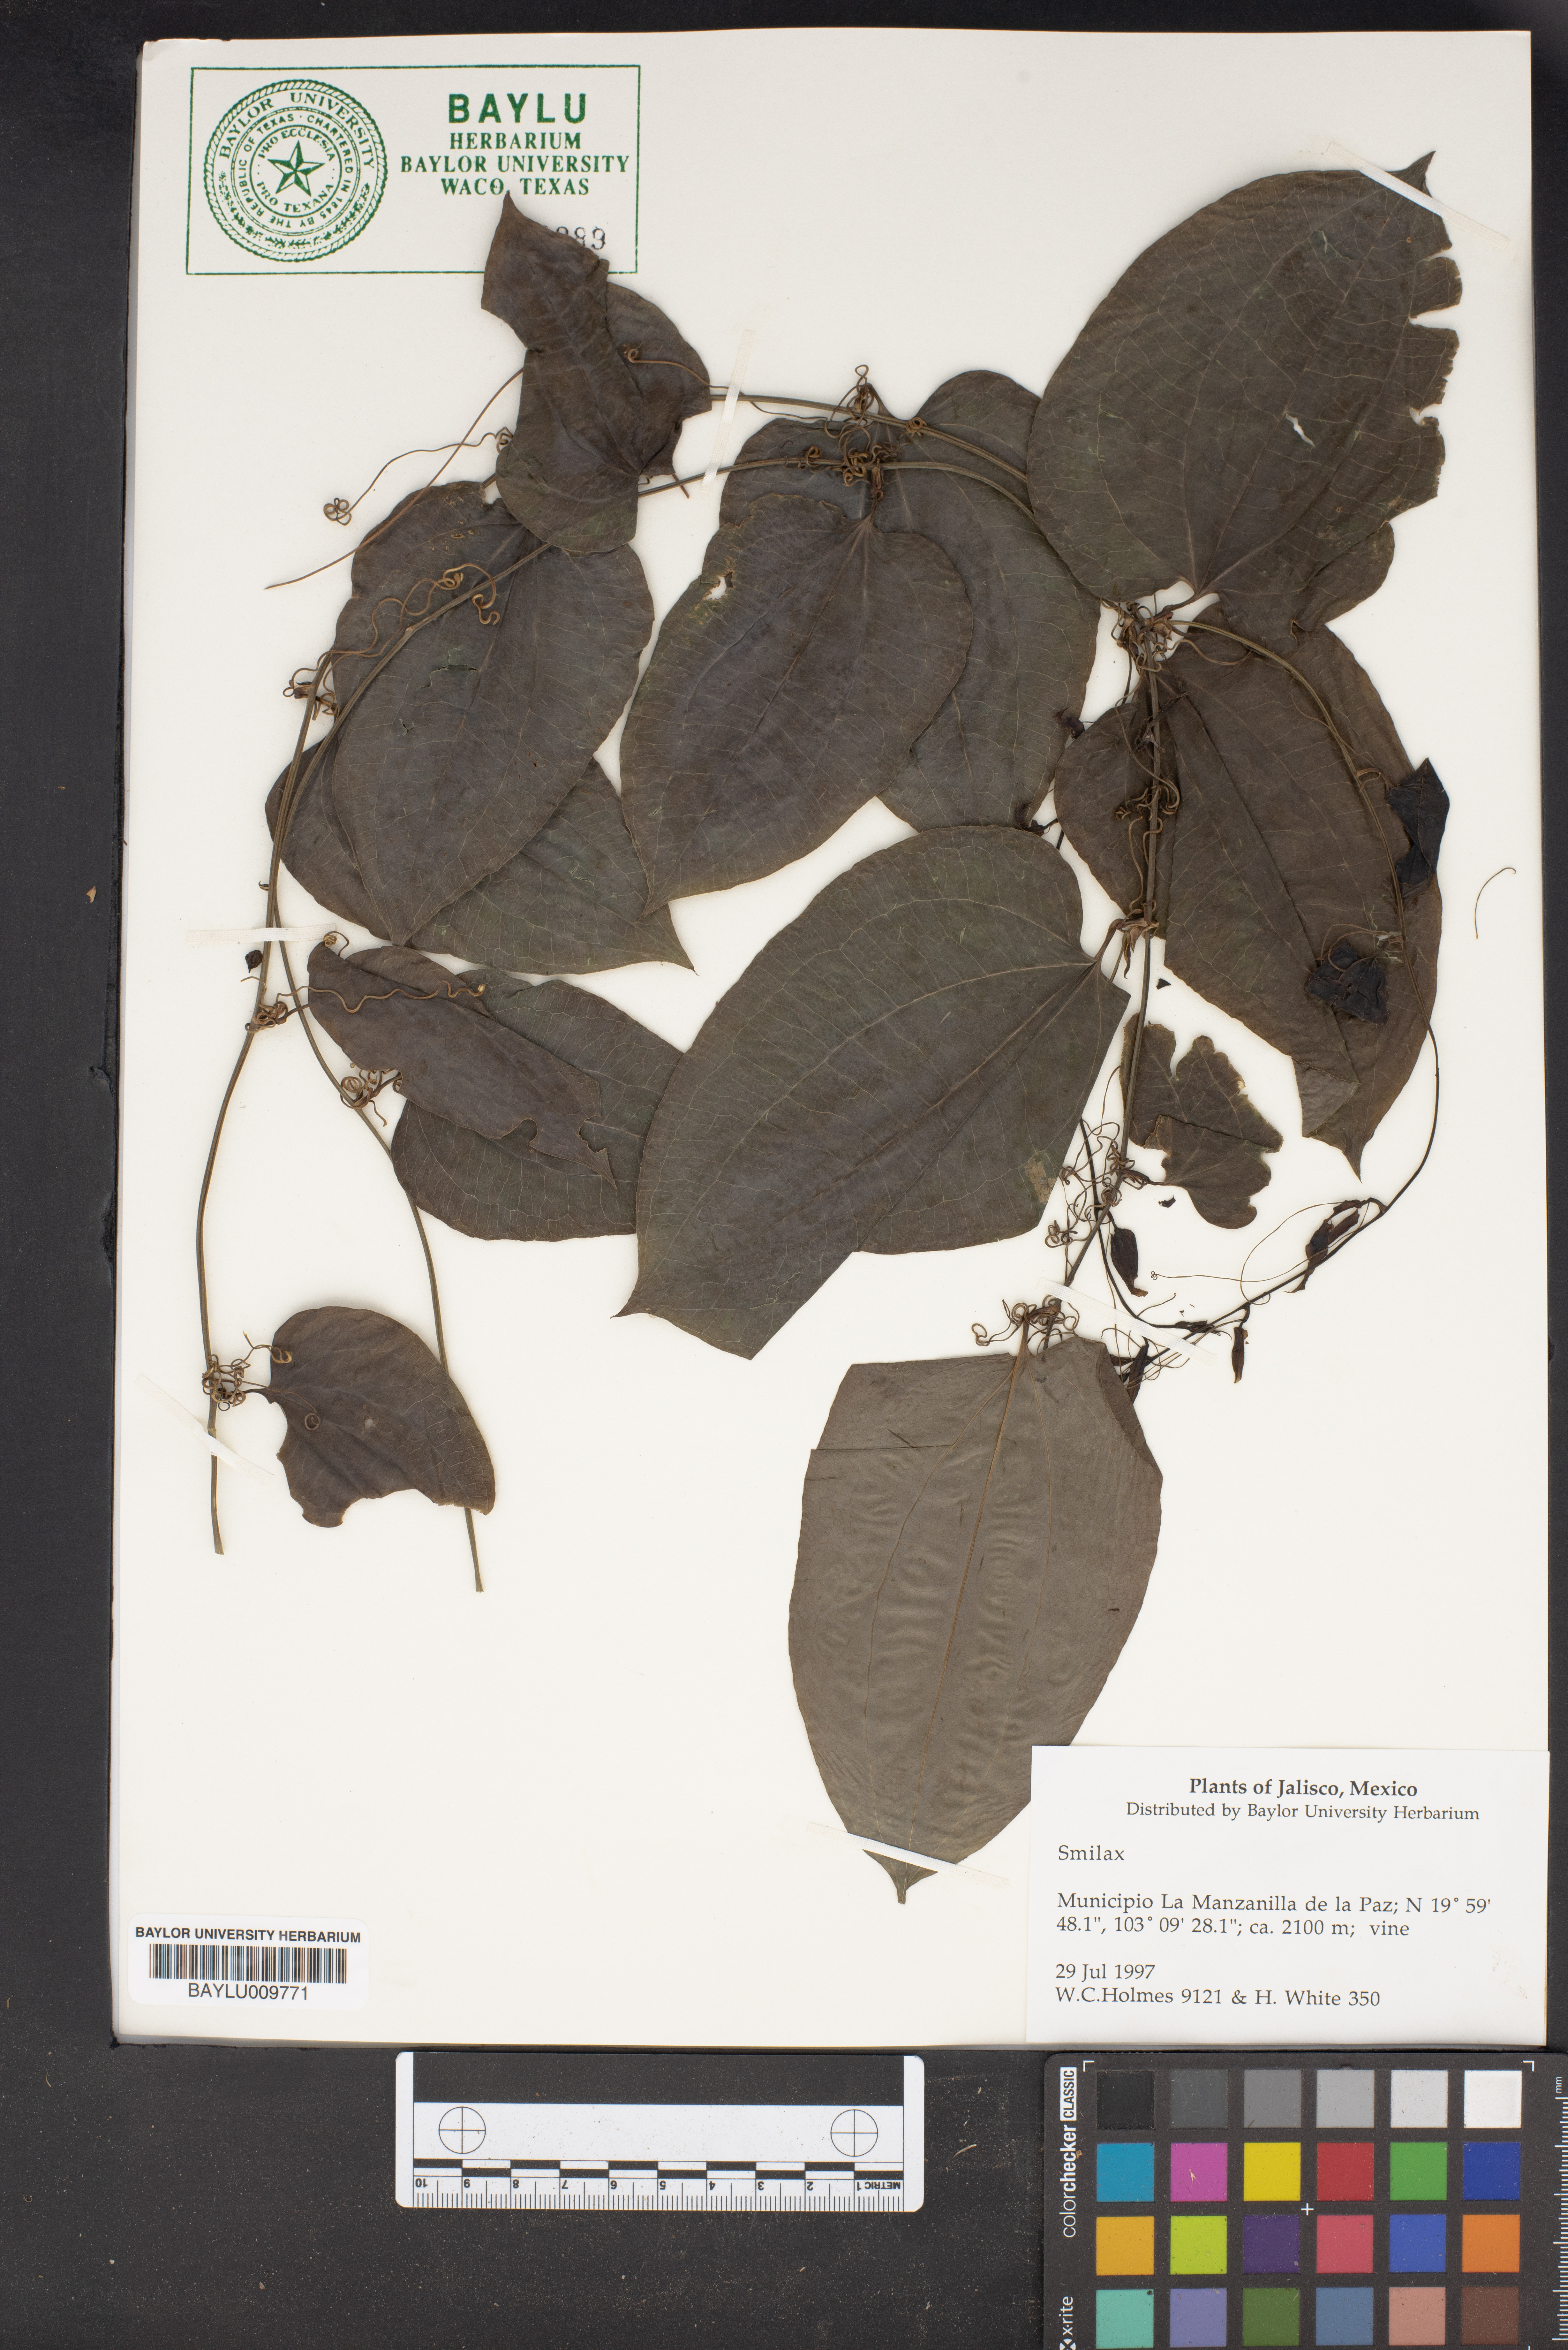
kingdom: Plantae
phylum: Tracheophyta
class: Liliopsida
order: Liliales
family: Smilacaceae
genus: Smilax
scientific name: Smilax
